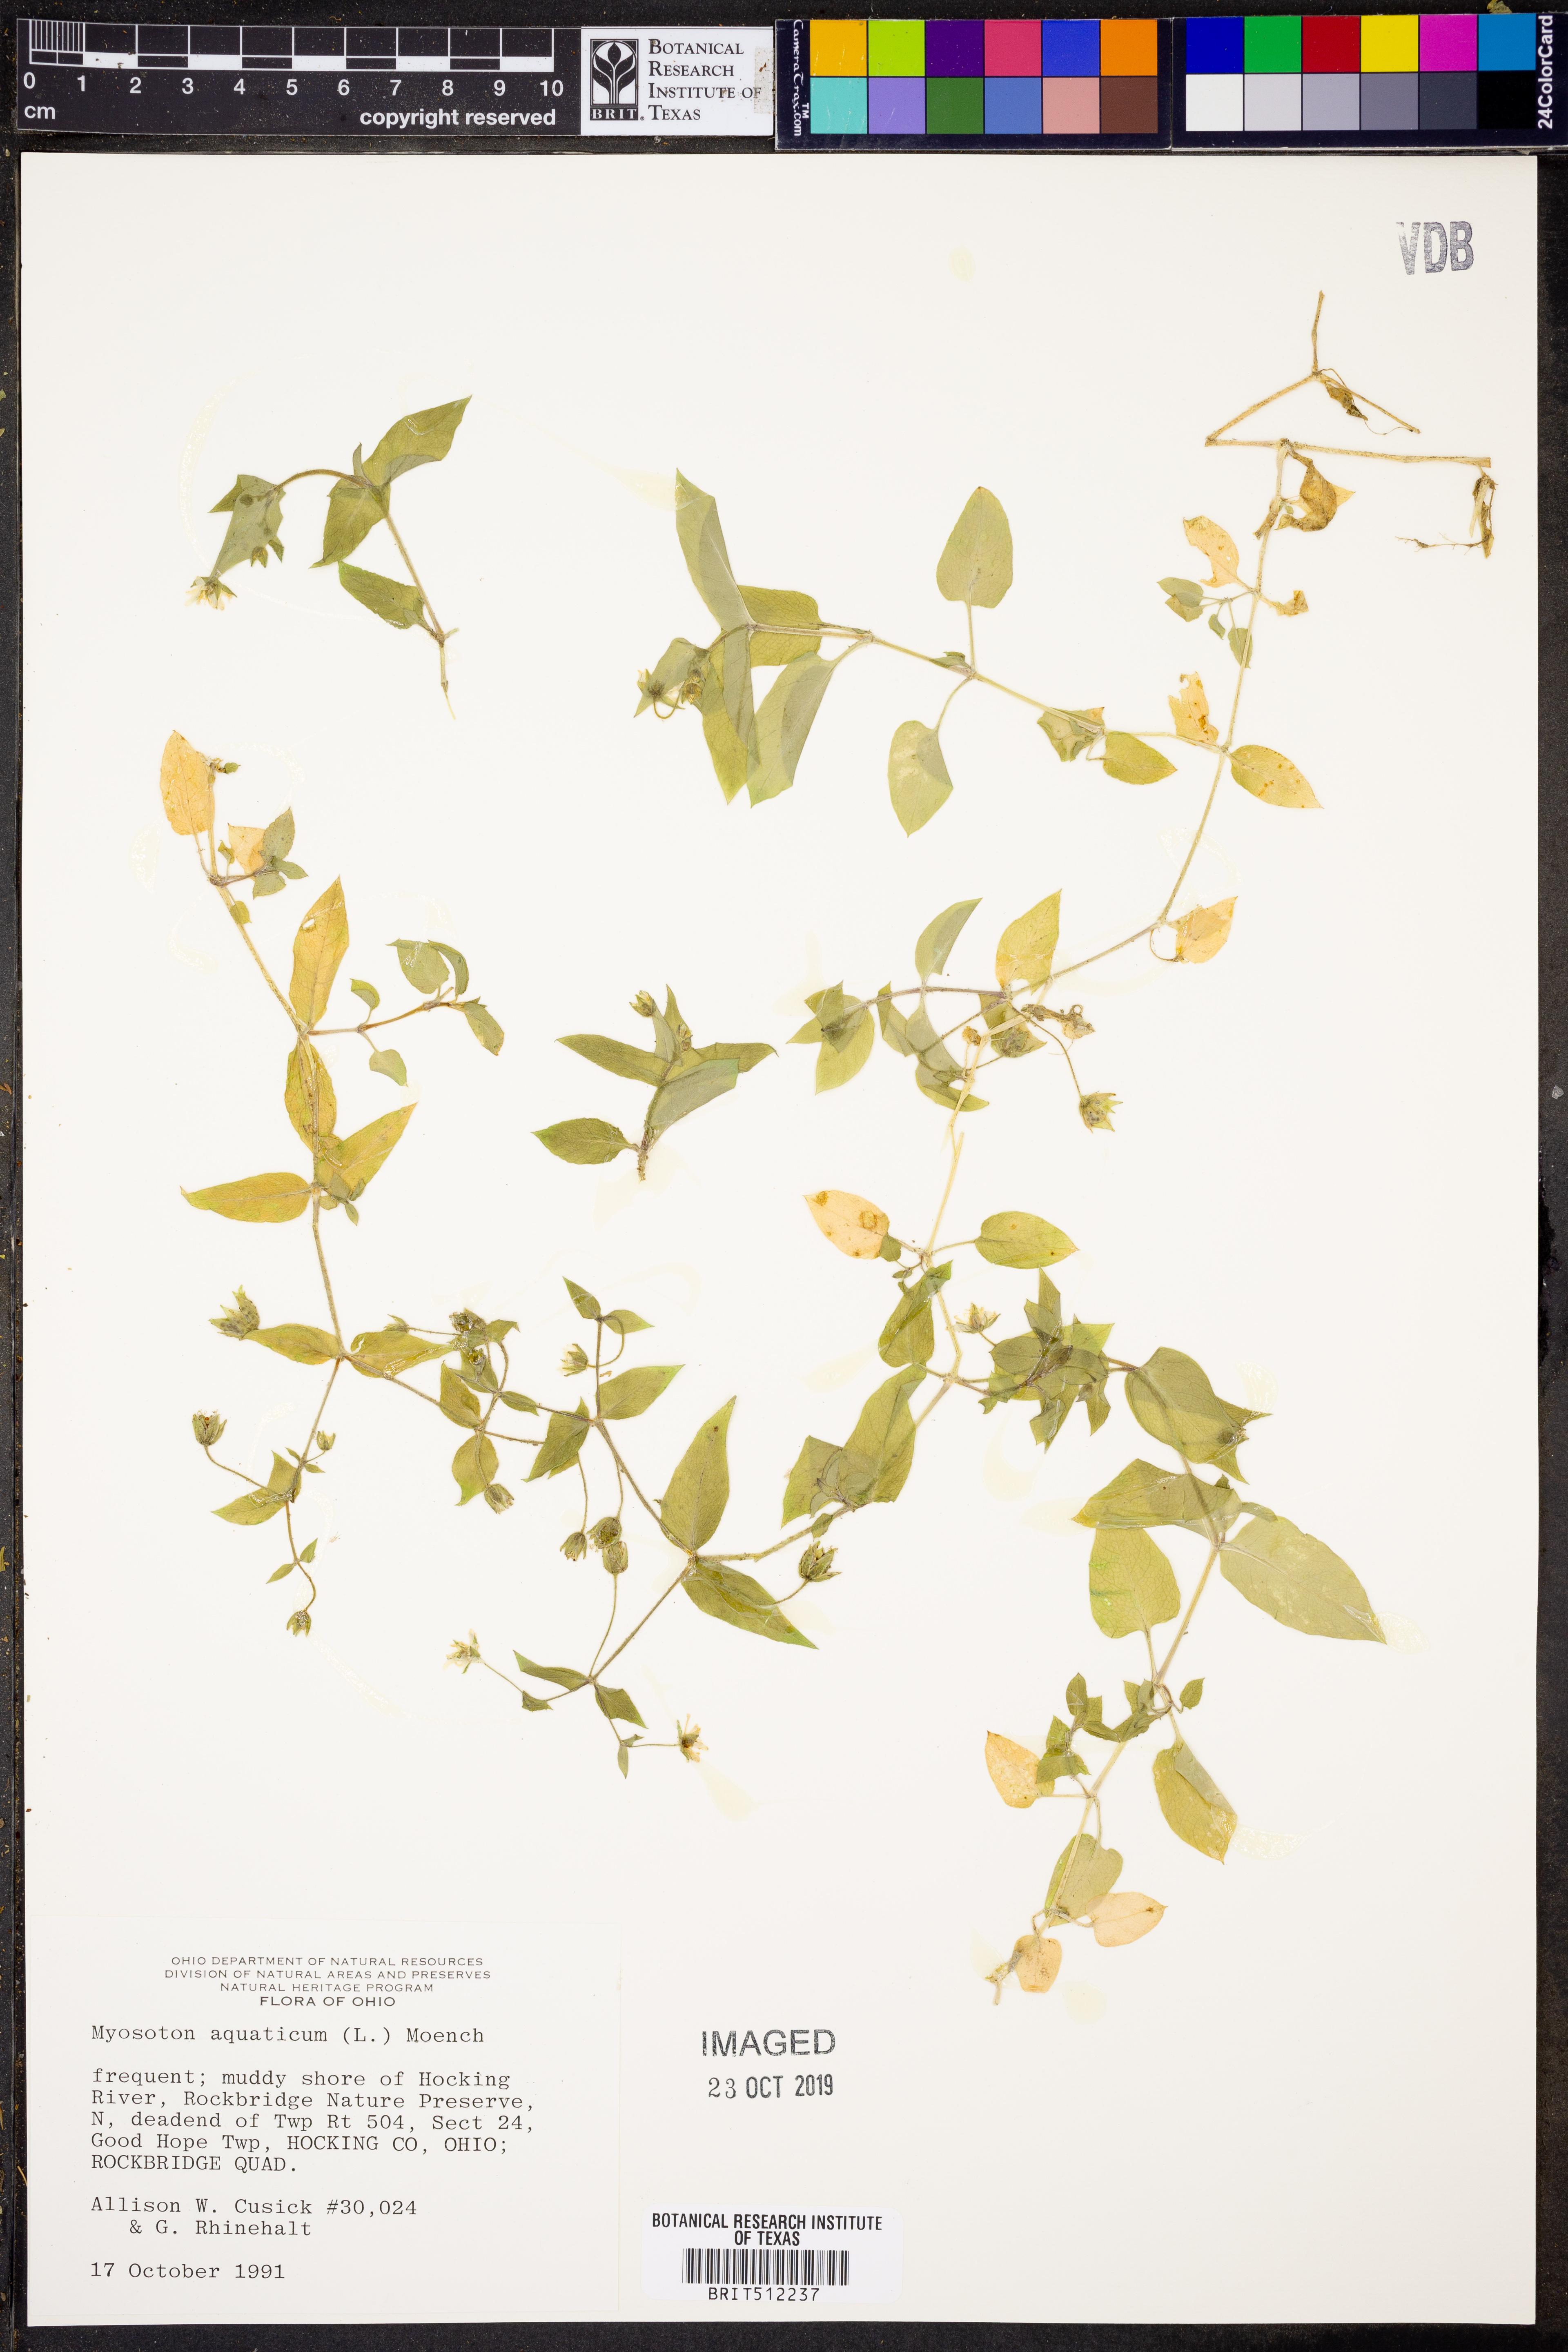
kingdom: Plantae
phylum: Tracheophyta
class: Magnoliopsida
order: Caryophyllales
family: Caryophyllaceae
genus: Stellaria
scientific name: Stellaria aquatica
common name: Water chickweed
